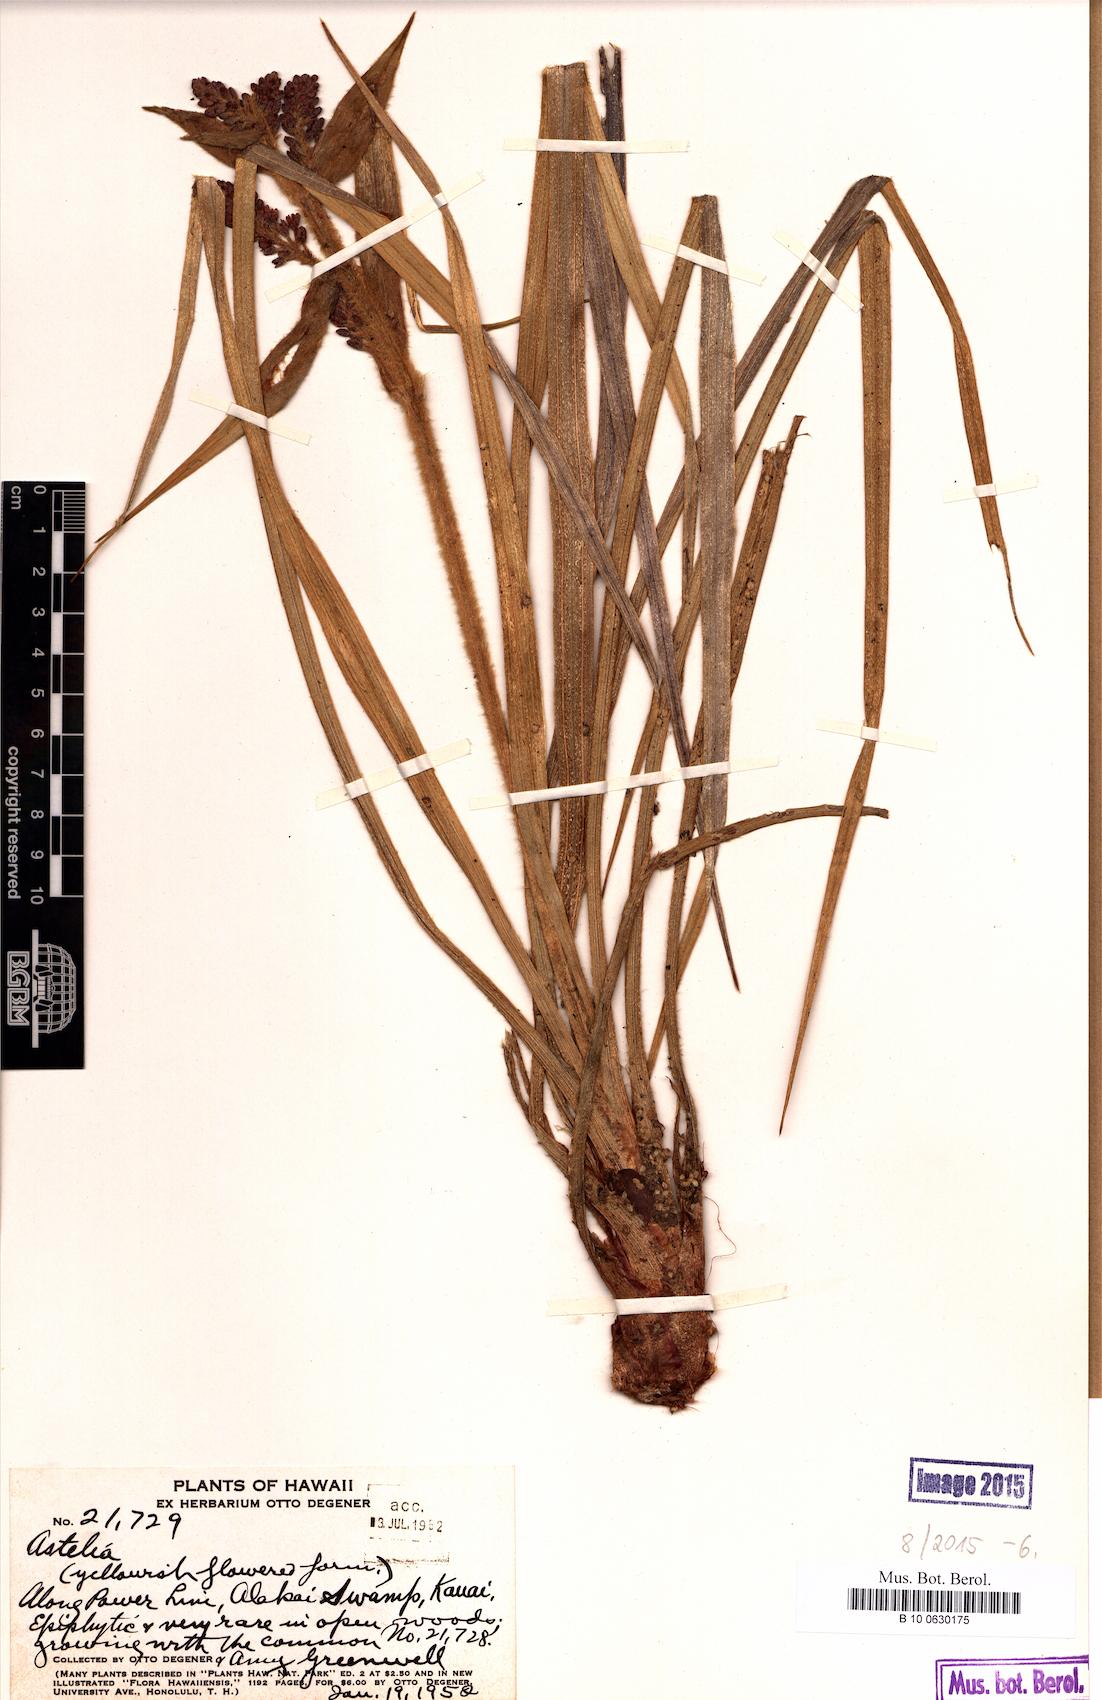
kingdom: Plantae
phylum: Tracheophyta
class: Liliopsida
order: Asparagales
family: Asteliaceae
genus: Astelia
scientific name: Astelia
